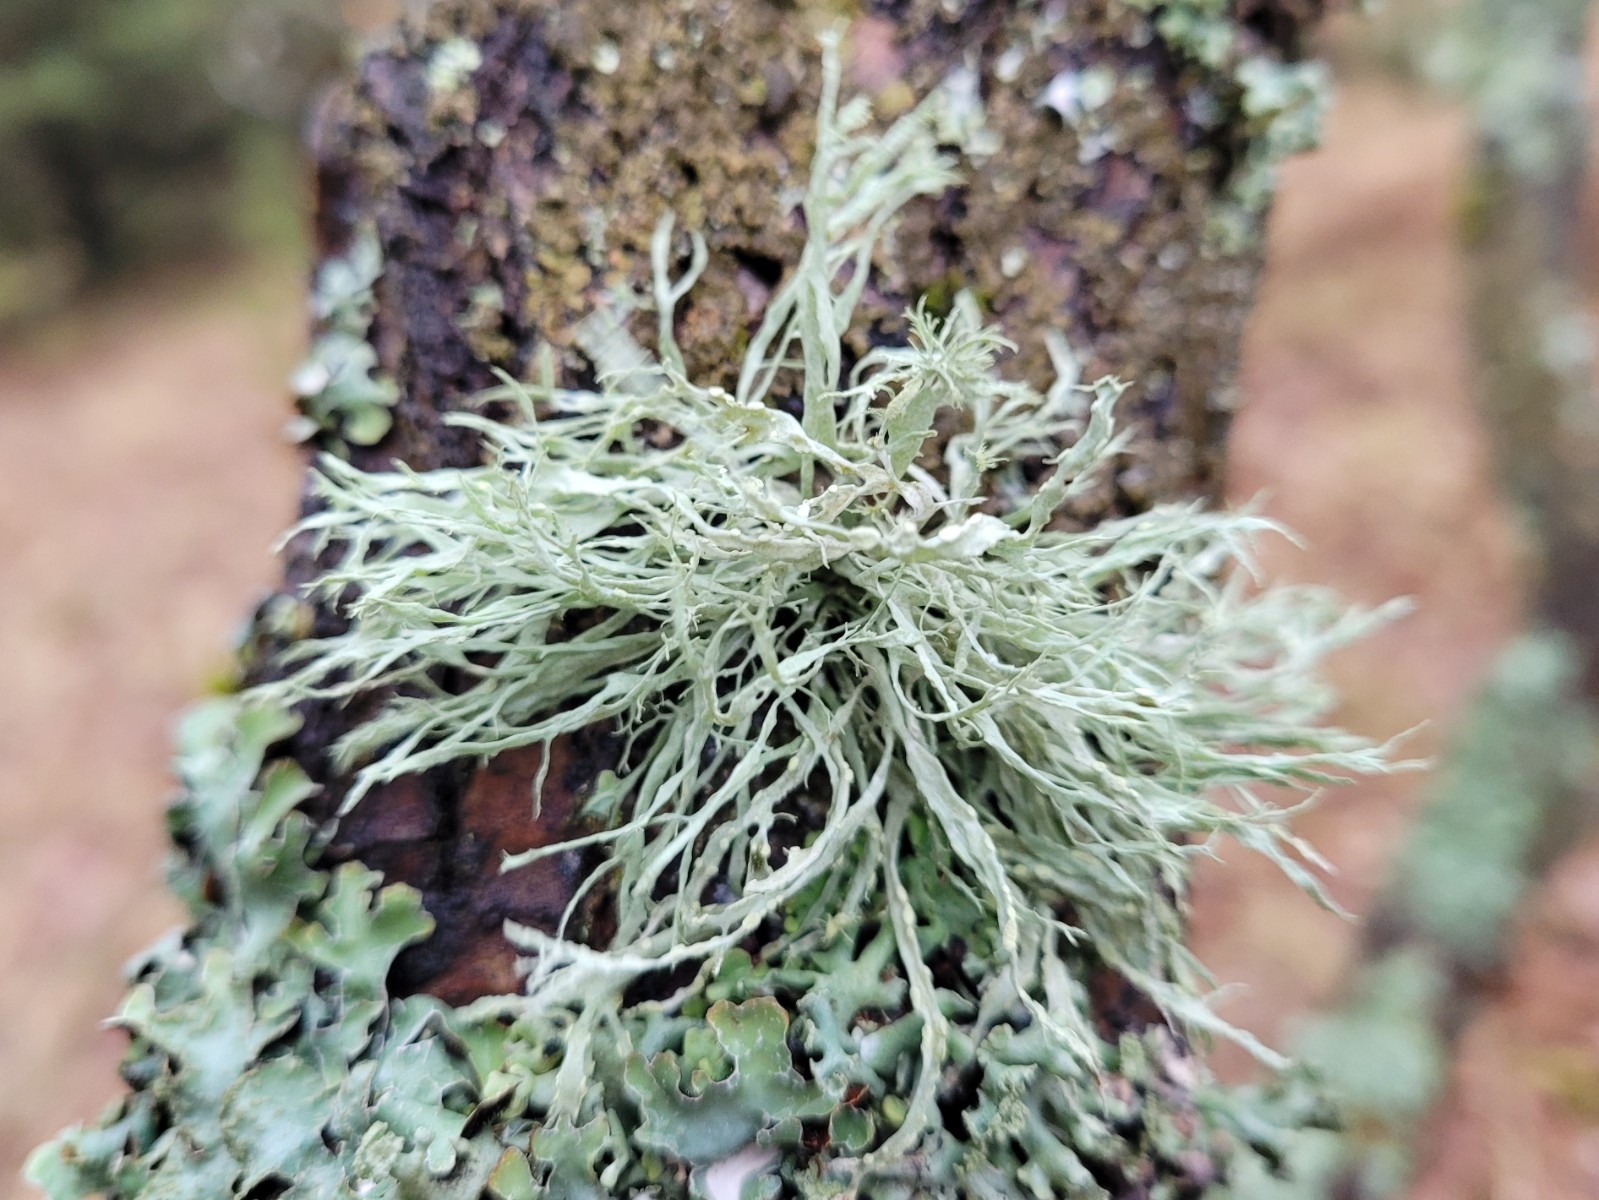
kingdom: Fungi
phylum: Ascomycota
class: Lecanoromycetes
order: Lecanorales
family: Ramalinaceae
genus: Ramalina
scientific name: Ramalina farinacea
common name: melet grenlav
